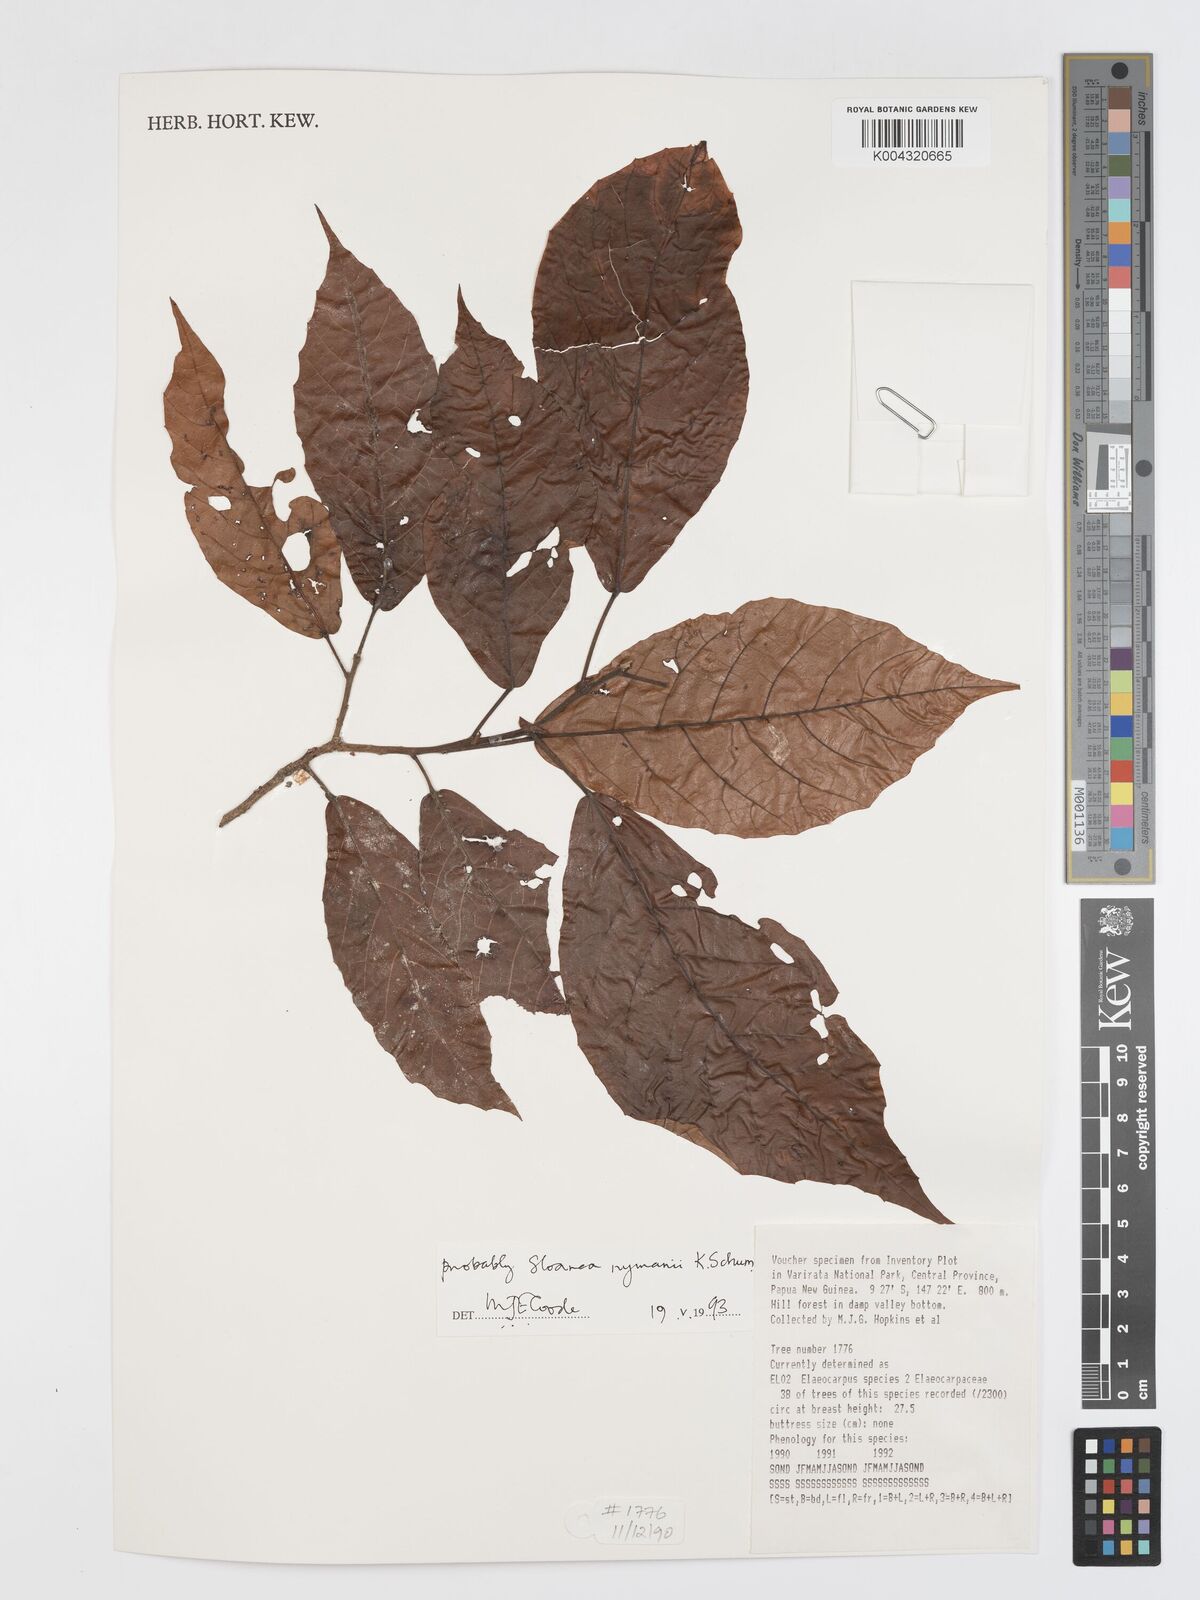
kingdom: Plantae
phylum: Tracheophyta
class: Magnoliopsida
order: Oxalidales
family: Elaeocarpaceae
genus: Sloanea
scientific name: Sloanea nymanii
